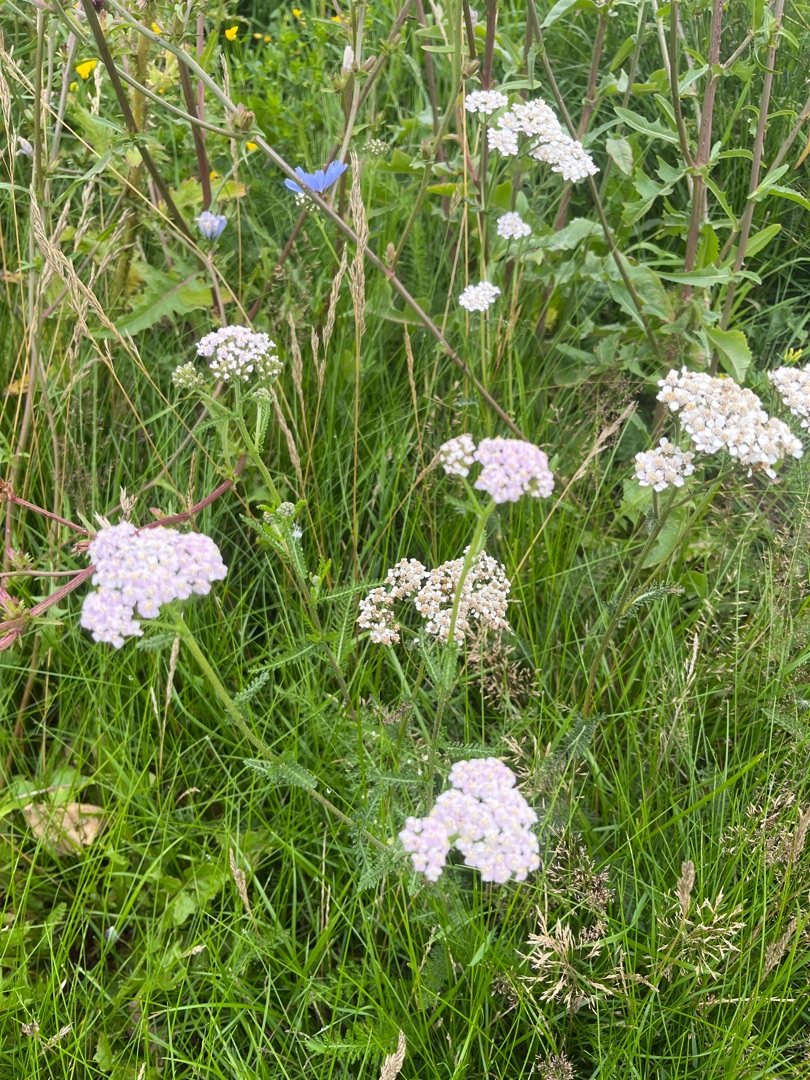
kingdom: Plantae
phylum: Tracheophyta
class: Magnoliopsida
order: Asterales
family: Asteraceae
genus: Achillea
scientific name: Achillea millefolium
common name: Almindelig røllike
